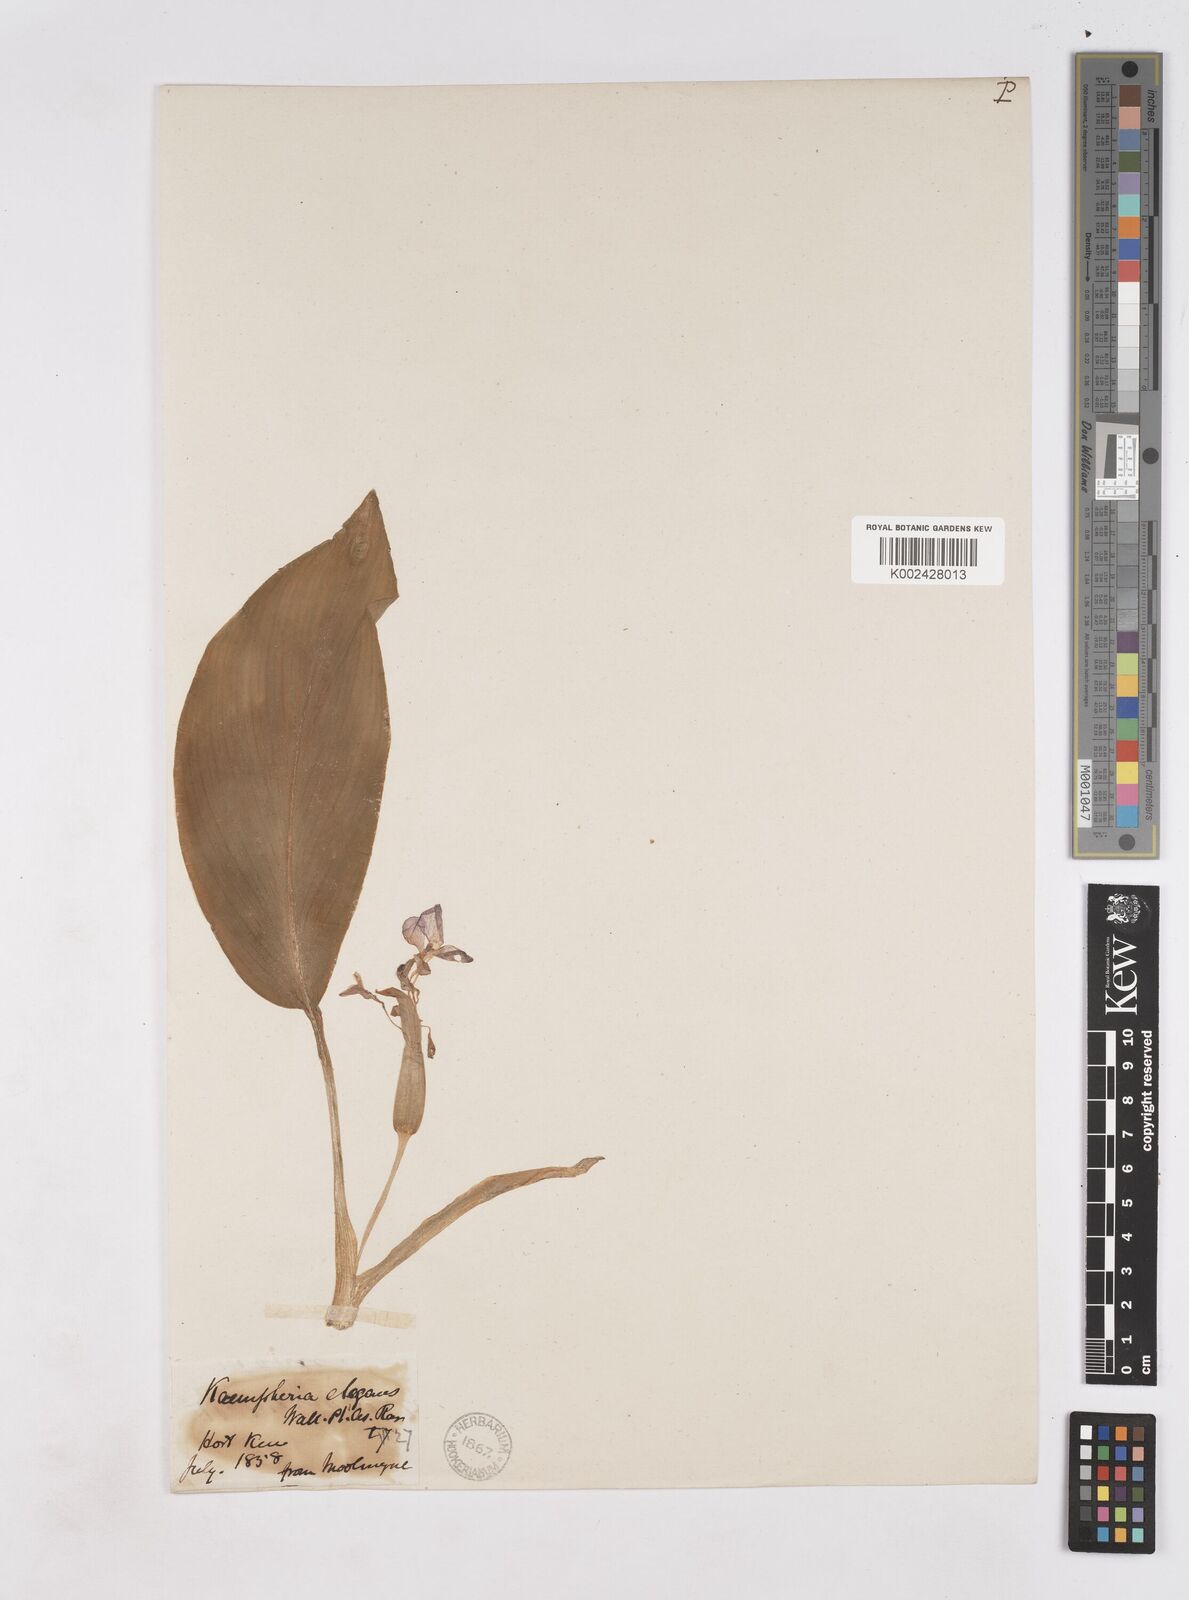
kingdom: Plantae
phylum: Tracheophyta
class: Liliopsida
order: Zingiberales
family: Zingiberaceae
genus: Kaempferia
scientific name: Kaempferia elegans
